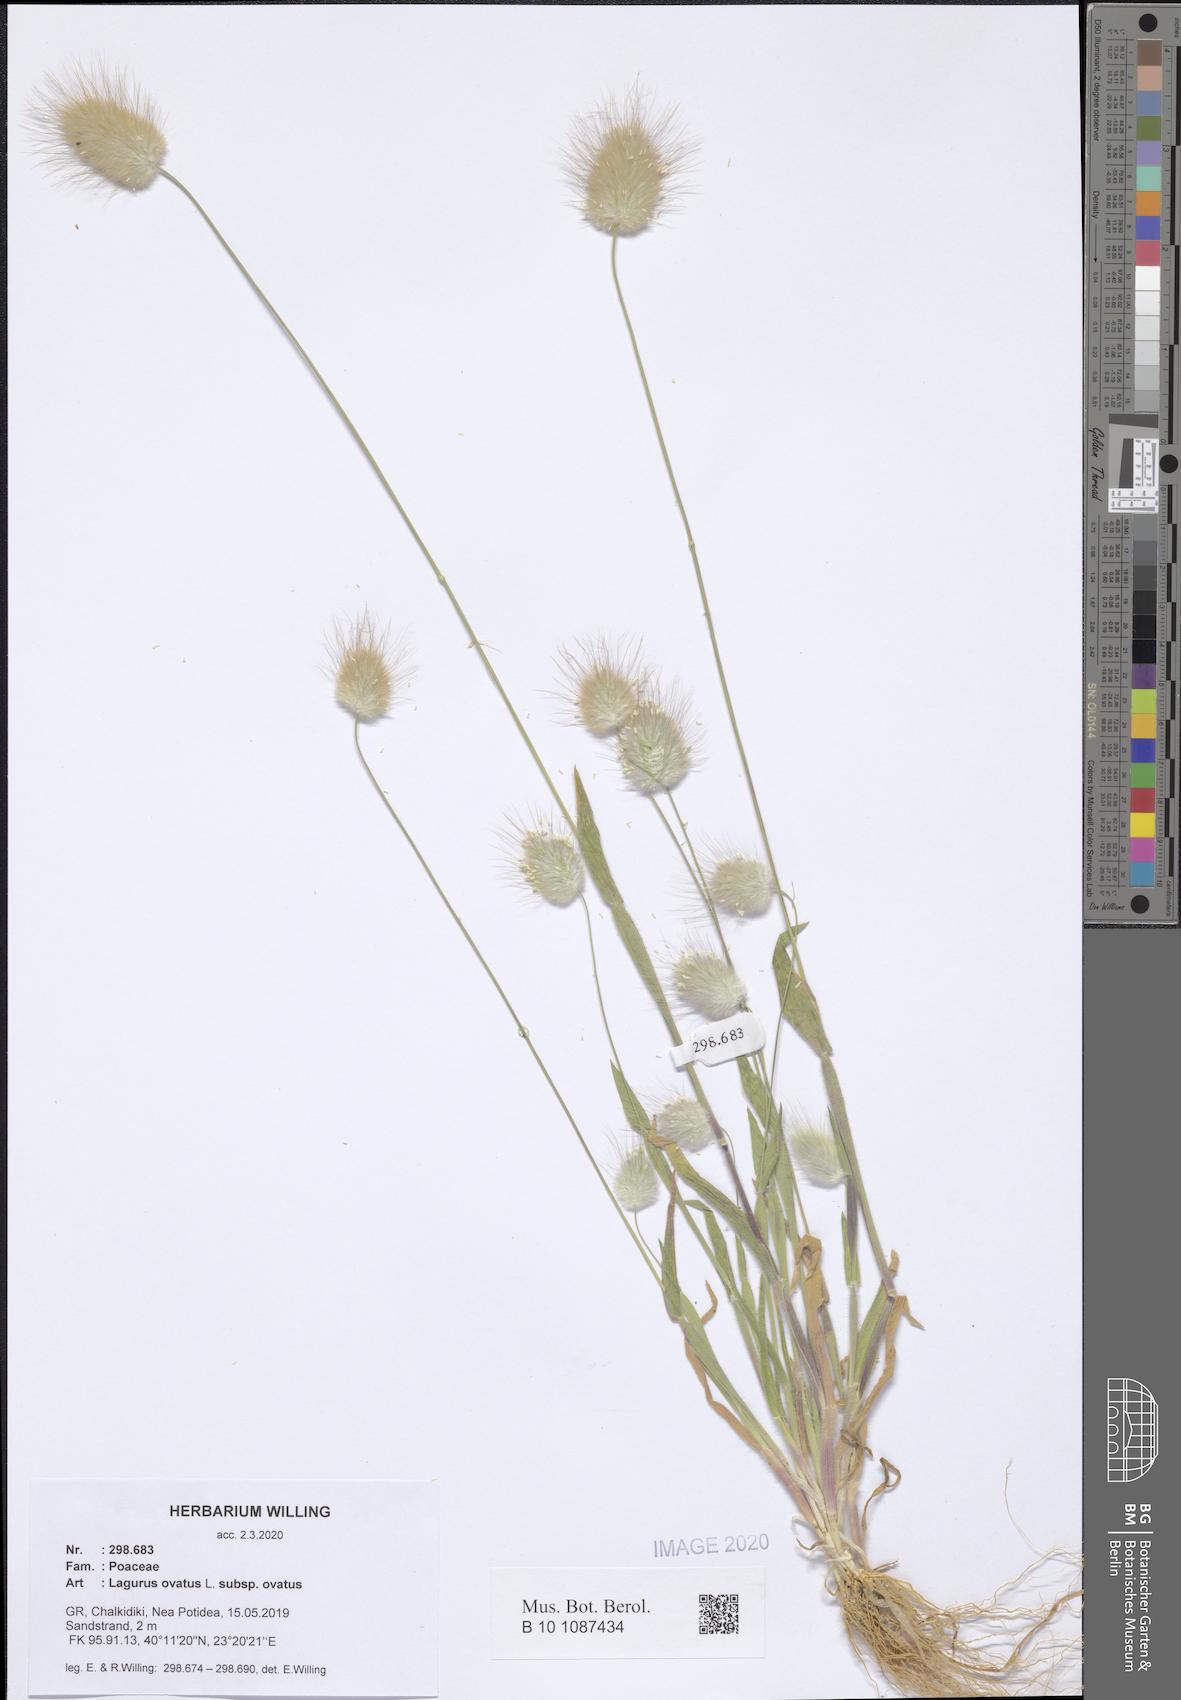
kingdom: Plantae
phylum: Tracheophyta
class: Liliopsida
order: Poales
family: Poaceae
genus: Lagurus
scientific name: Lagurus ovatus
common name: Hare's-tail
